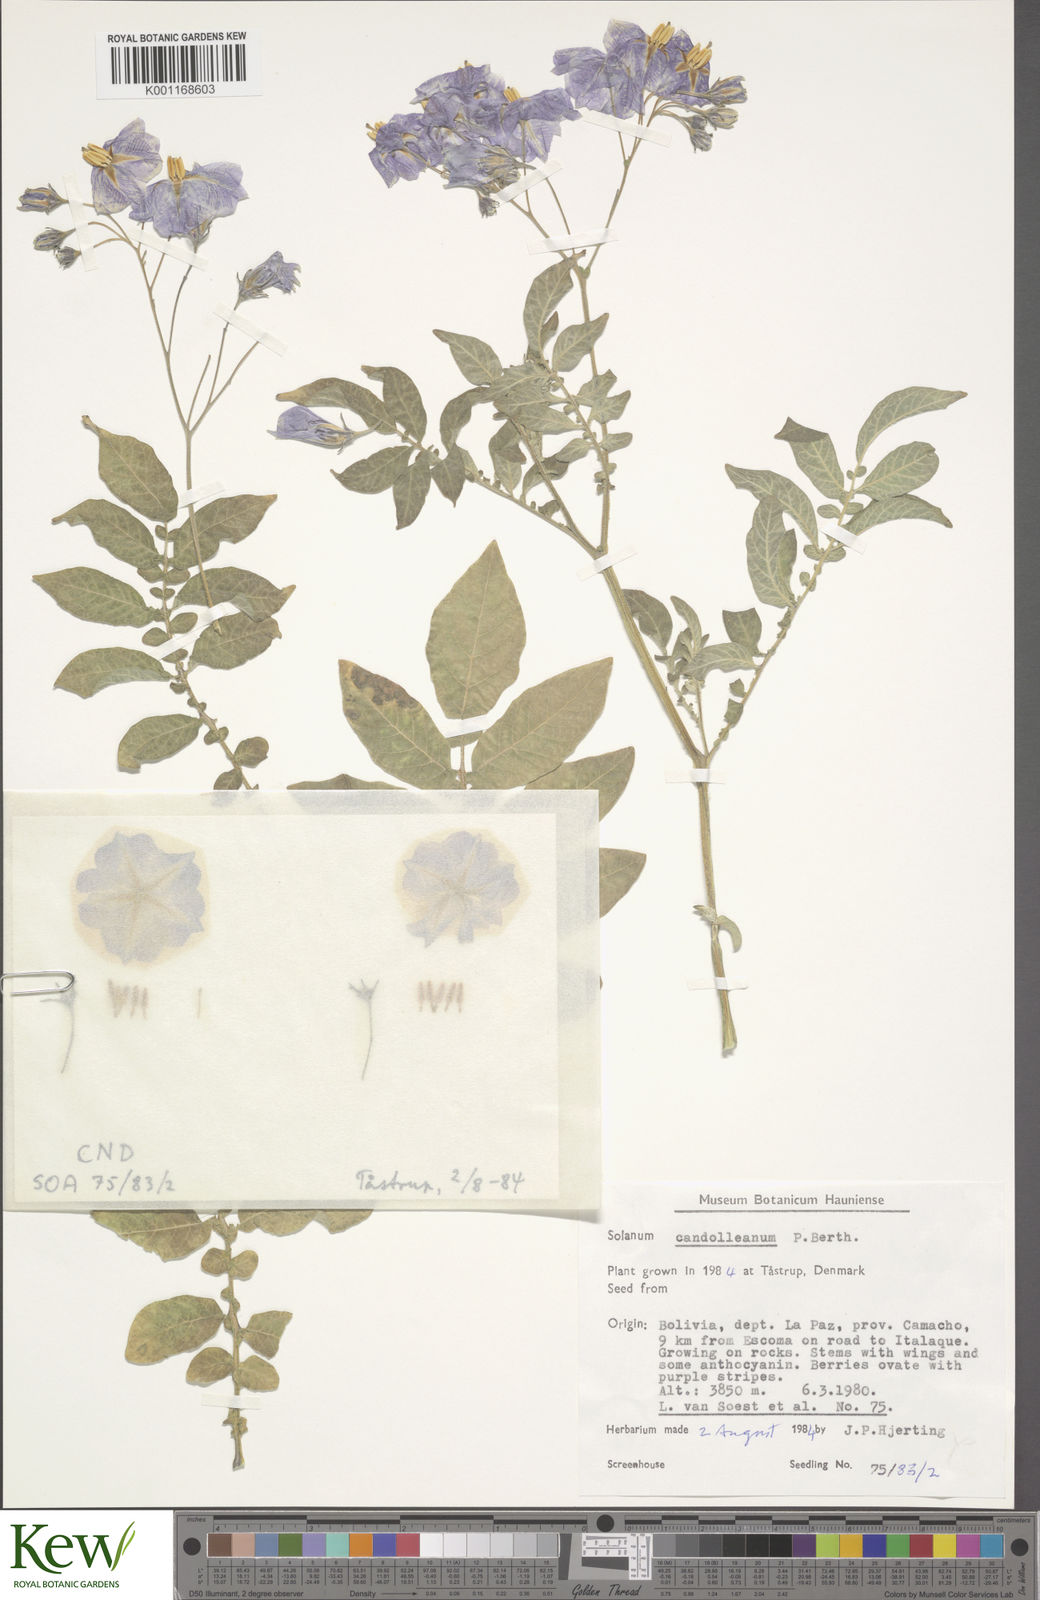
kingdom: Plantae
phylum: Tracheophyta
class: Magnoliopsida
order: Solanales
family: Solanaceae
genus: Solanum
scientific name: Solanum candolleanum
